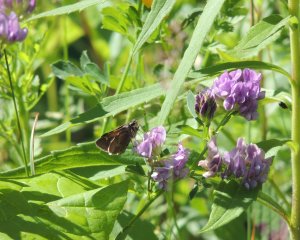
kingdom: Animalia
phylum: Arthropoda
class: Insecta
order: Lepidoptera
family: Hesperiidae
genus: Polites
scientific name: Polites themistocles
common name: Tawny-edged Skipper
